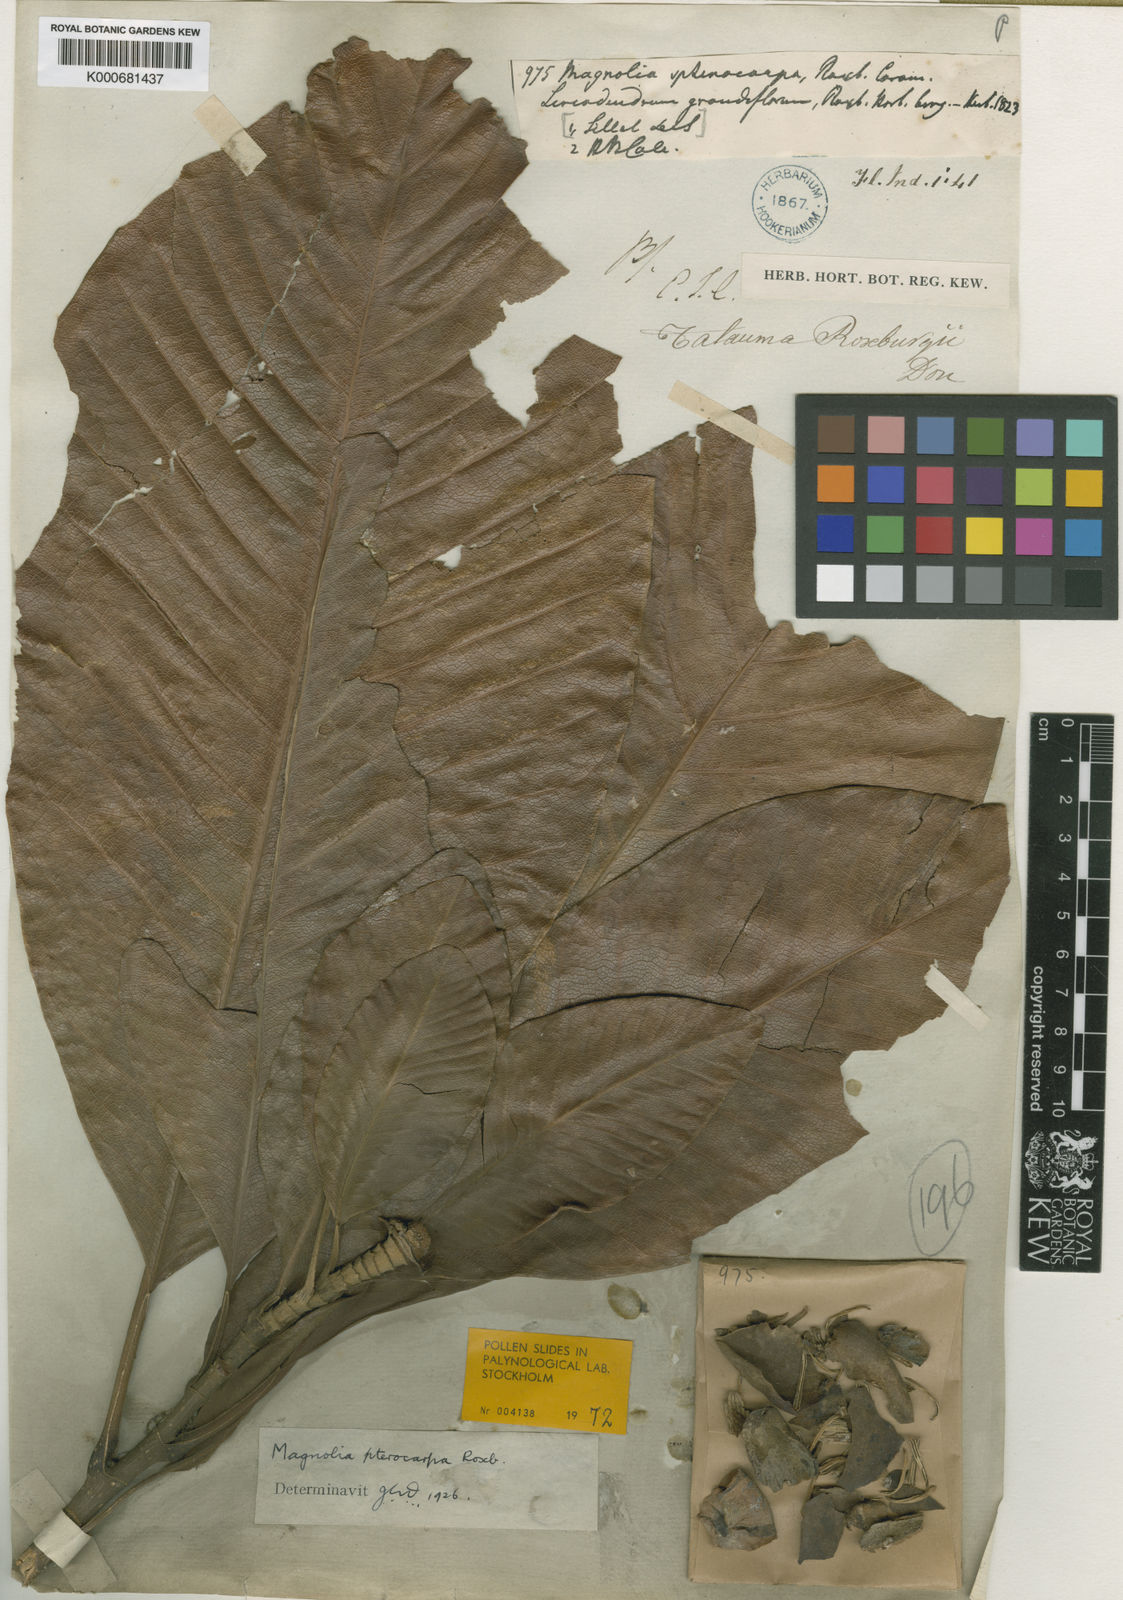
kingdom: Plantae
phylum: Tracheophyta
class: Magnoliopsida
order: Magnoliales
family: Magnoliaceae
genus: Magnolia
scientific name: Magnolia pterocarpa
